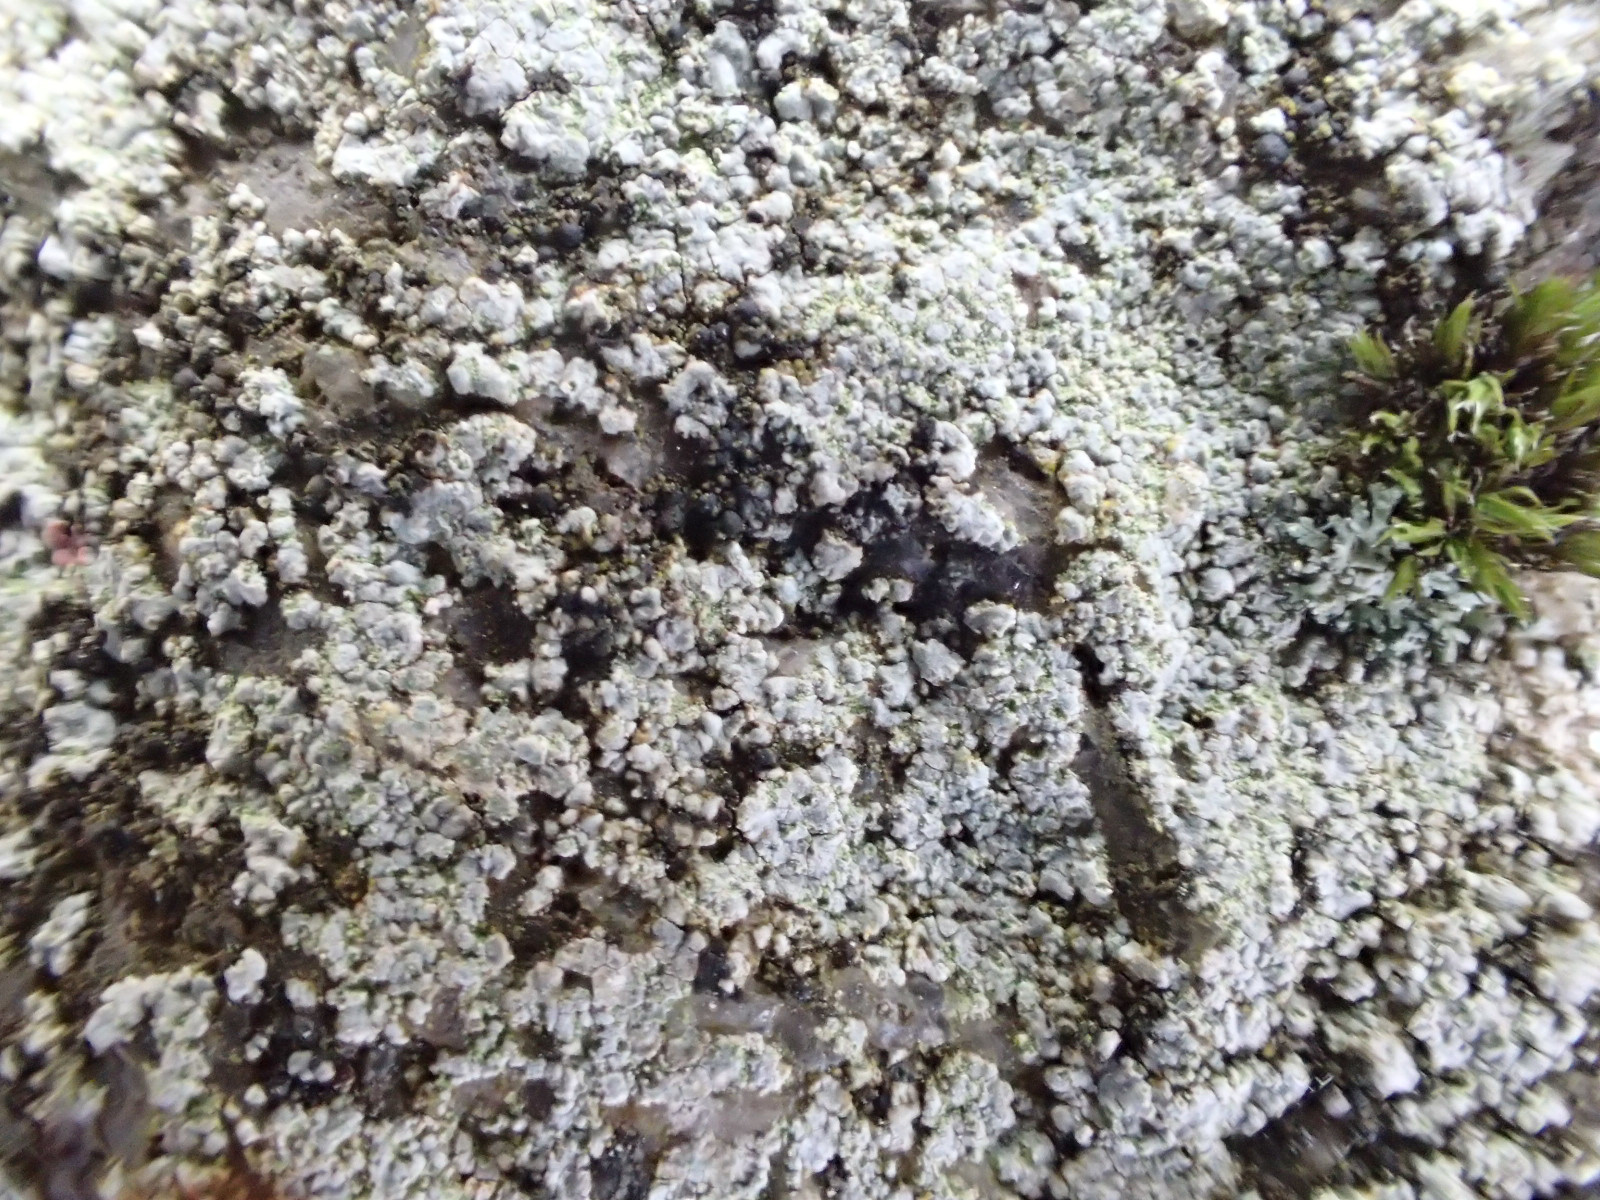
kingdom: Fungi
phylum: Ascomycota
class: Lecanoromycetes
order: Baeomycetales
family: Trapeliaceae
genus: Kleopowiella
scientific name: Kleopowiella placodioides
